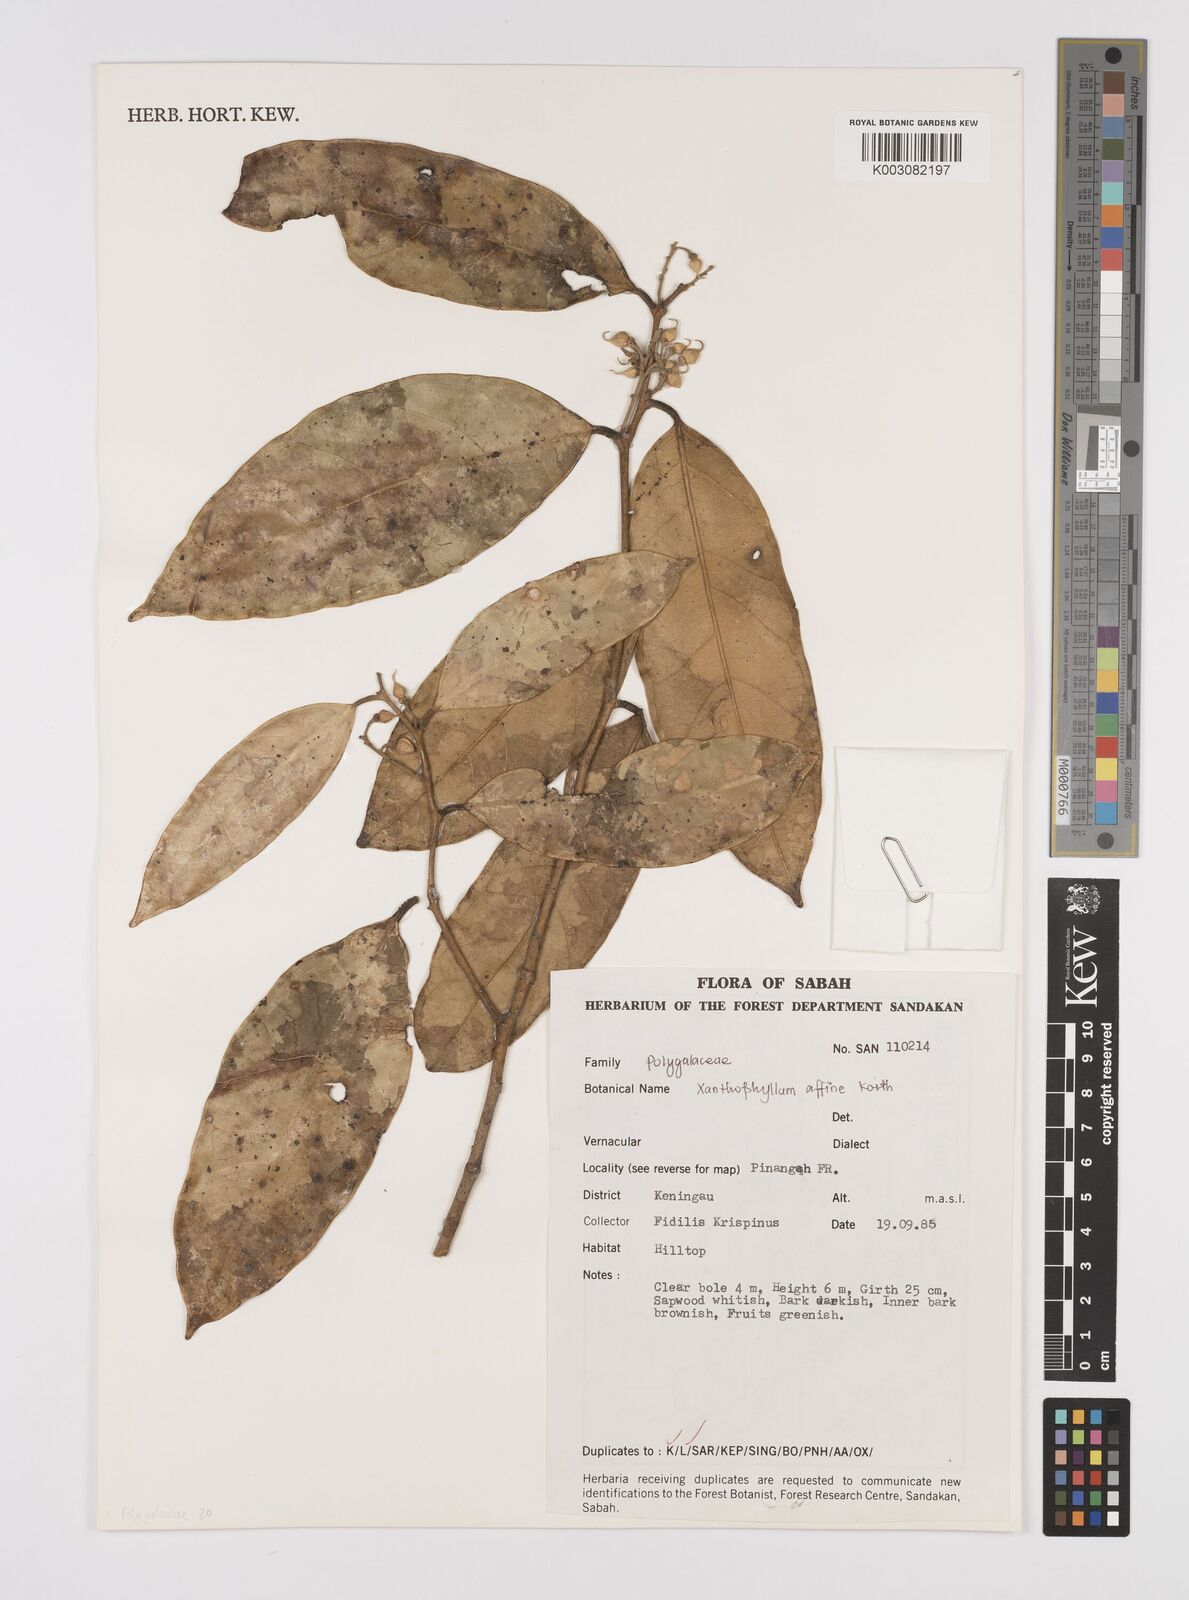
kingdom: Plantae
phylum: Tracheophyta
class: Magnoliopsida
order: Fabales
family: Polygalaceae
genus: Xanthophyllum
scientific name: Xanthophyllum flavescens
